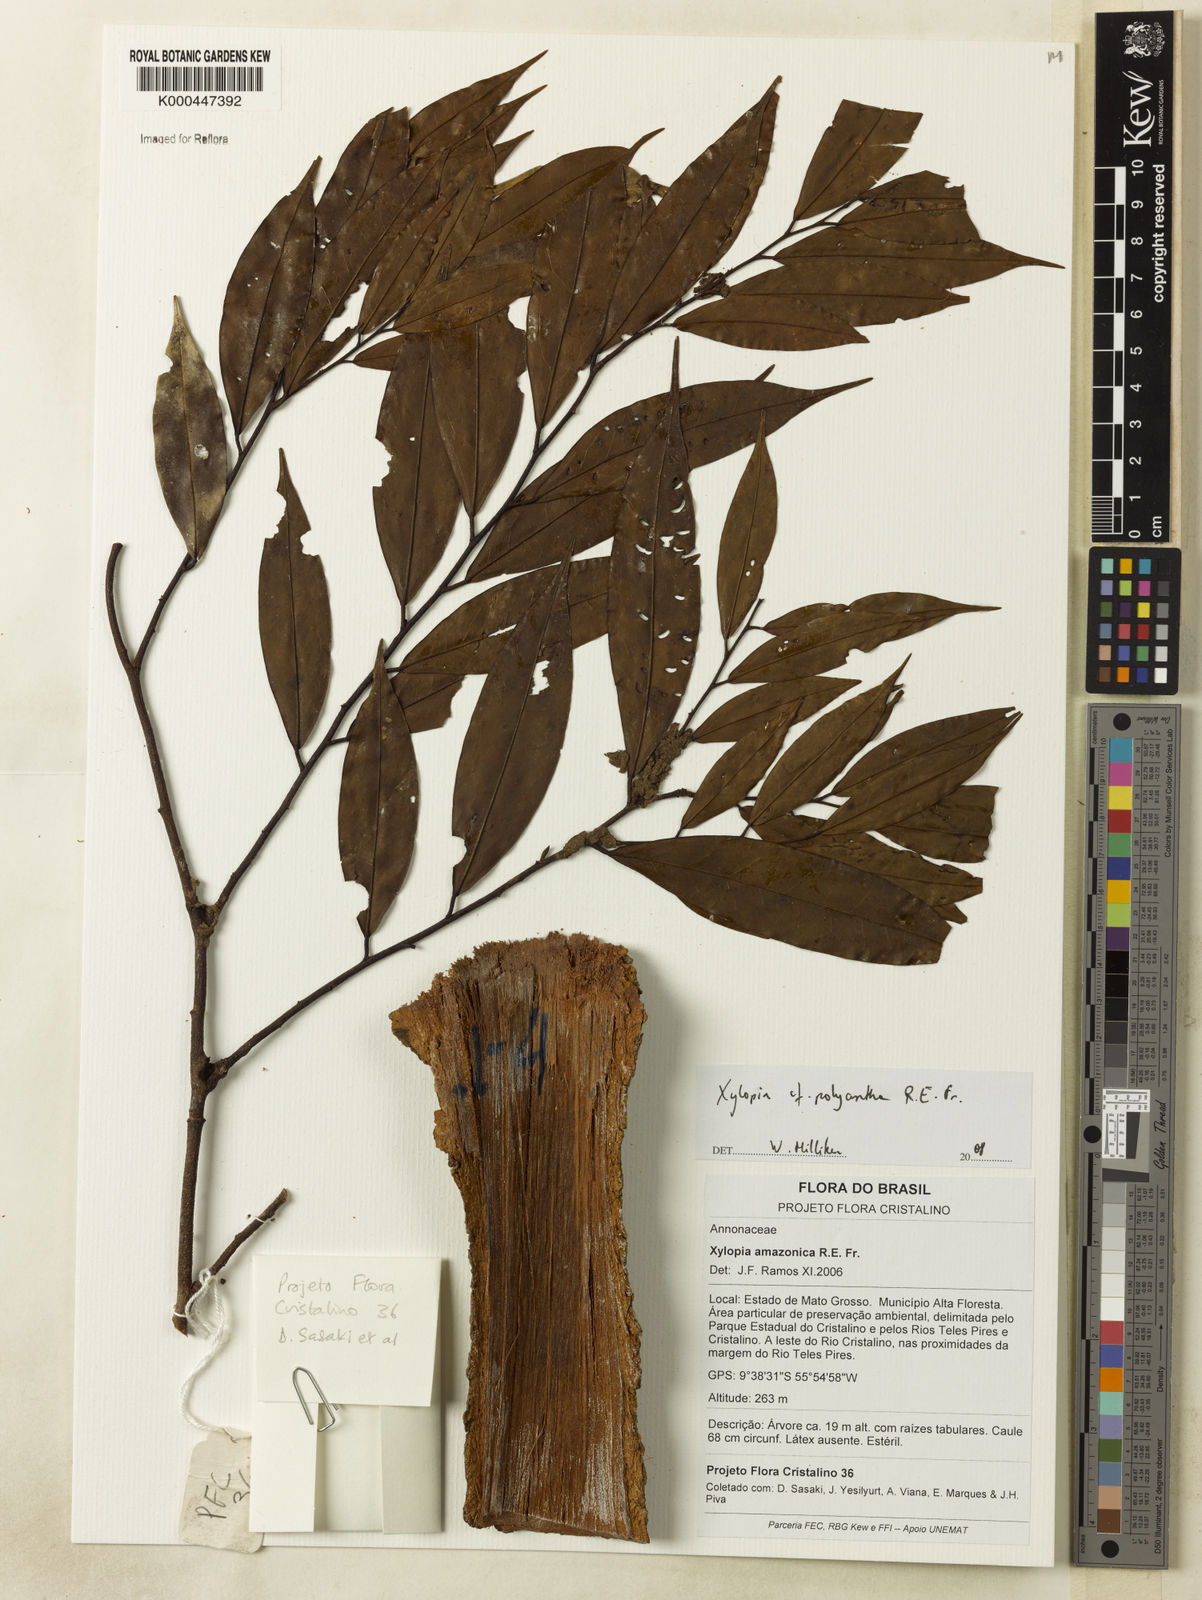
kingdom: Plantae
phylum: Tracheophyta
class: Magnoliopsida
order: Magnoliales
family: Annonaceae
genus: Xylopia
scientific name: Xylopia polyantha
